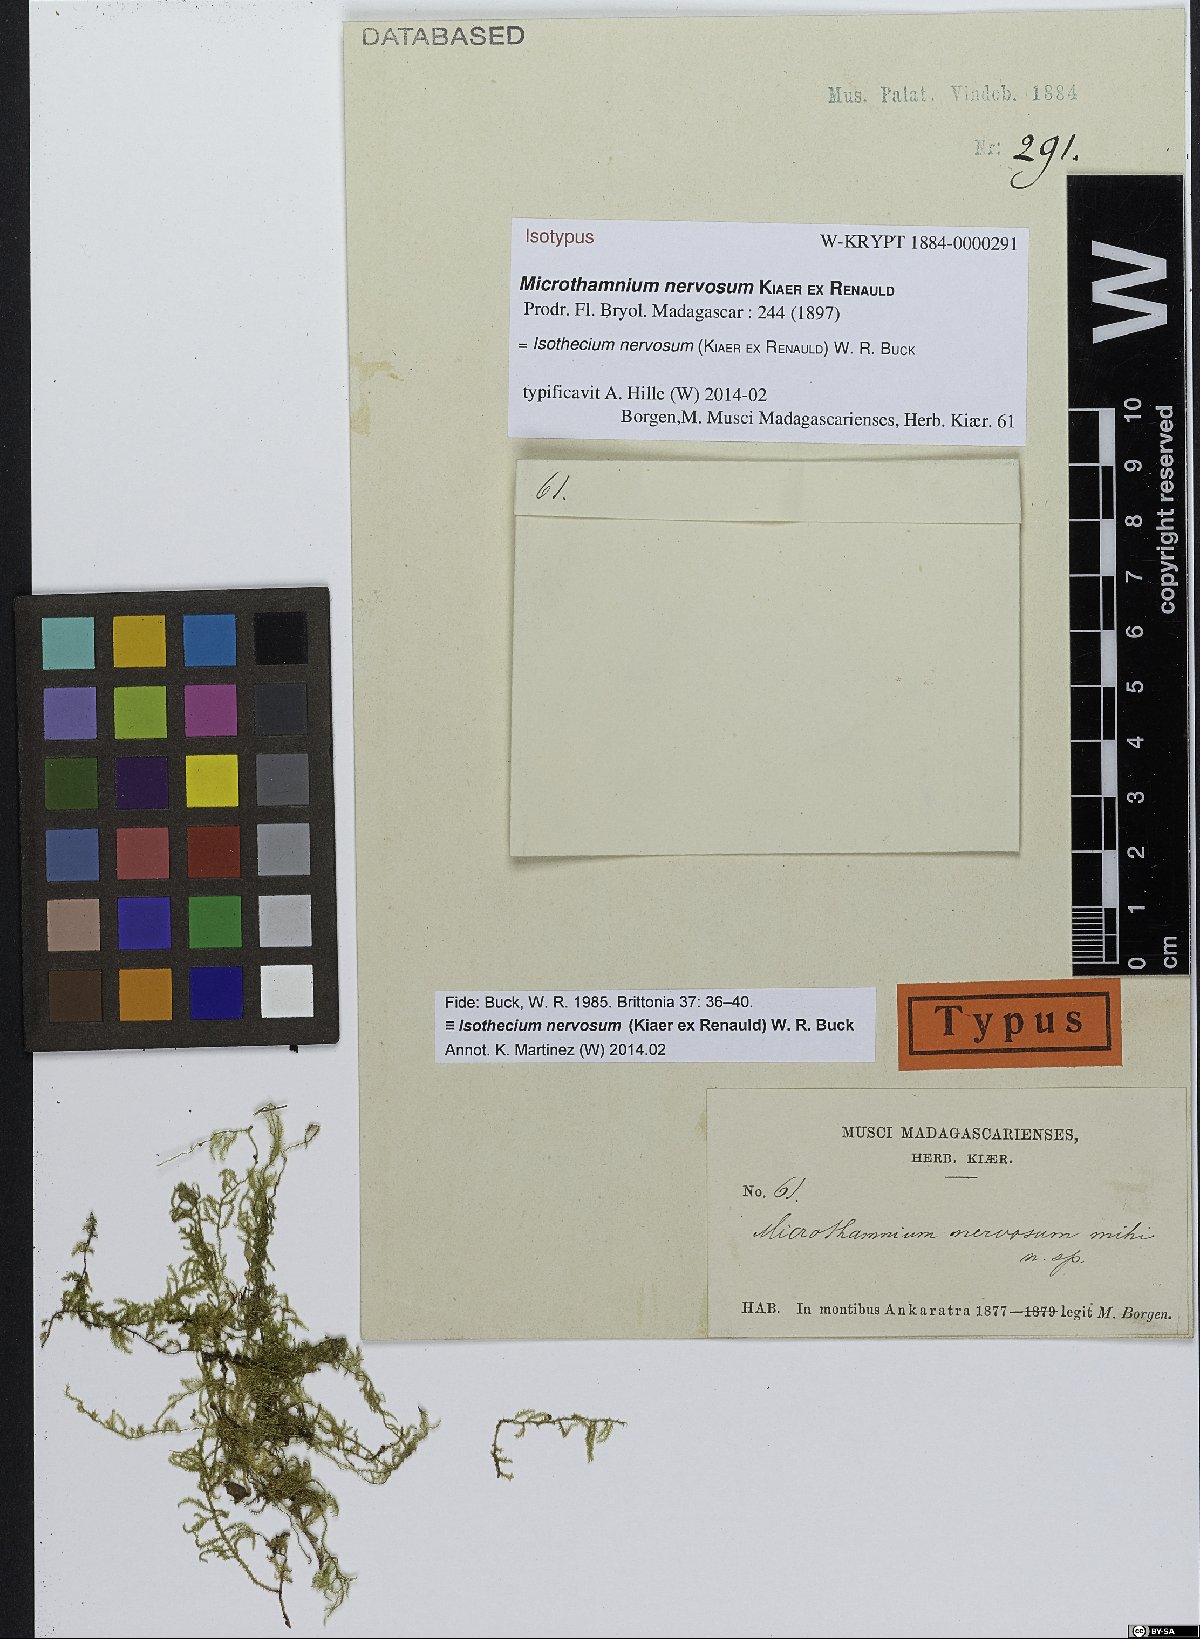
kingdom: Plantae
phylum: Bryophyta
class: Bryopsida
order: Hypnales
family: Lembophyllaceae
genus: Isothecium
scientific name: Isothecium nervosum
